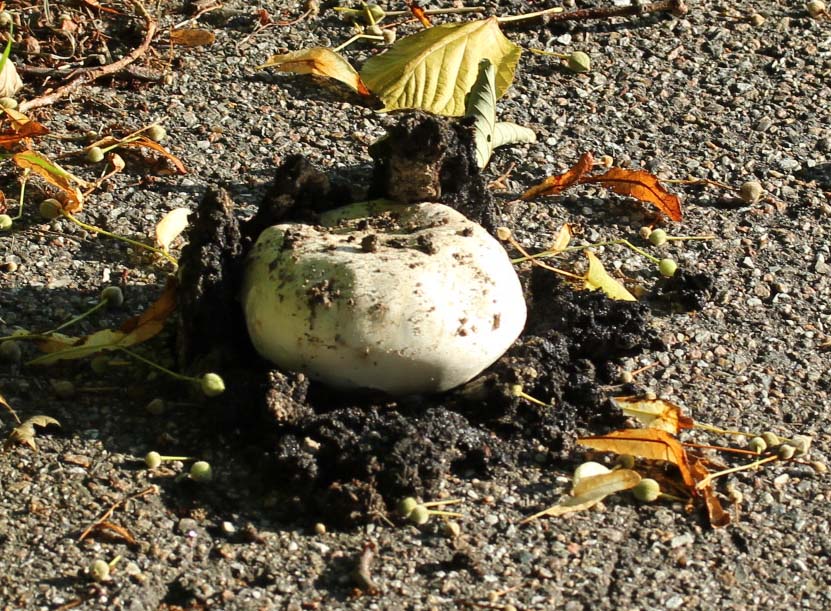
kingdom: Fungi
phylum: Basidiomycota
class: Agaricomycetes
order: Agaricales
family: Agaricaceae
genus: Agaricus
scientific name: Agaricus bitorquis
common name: vej-champignon
